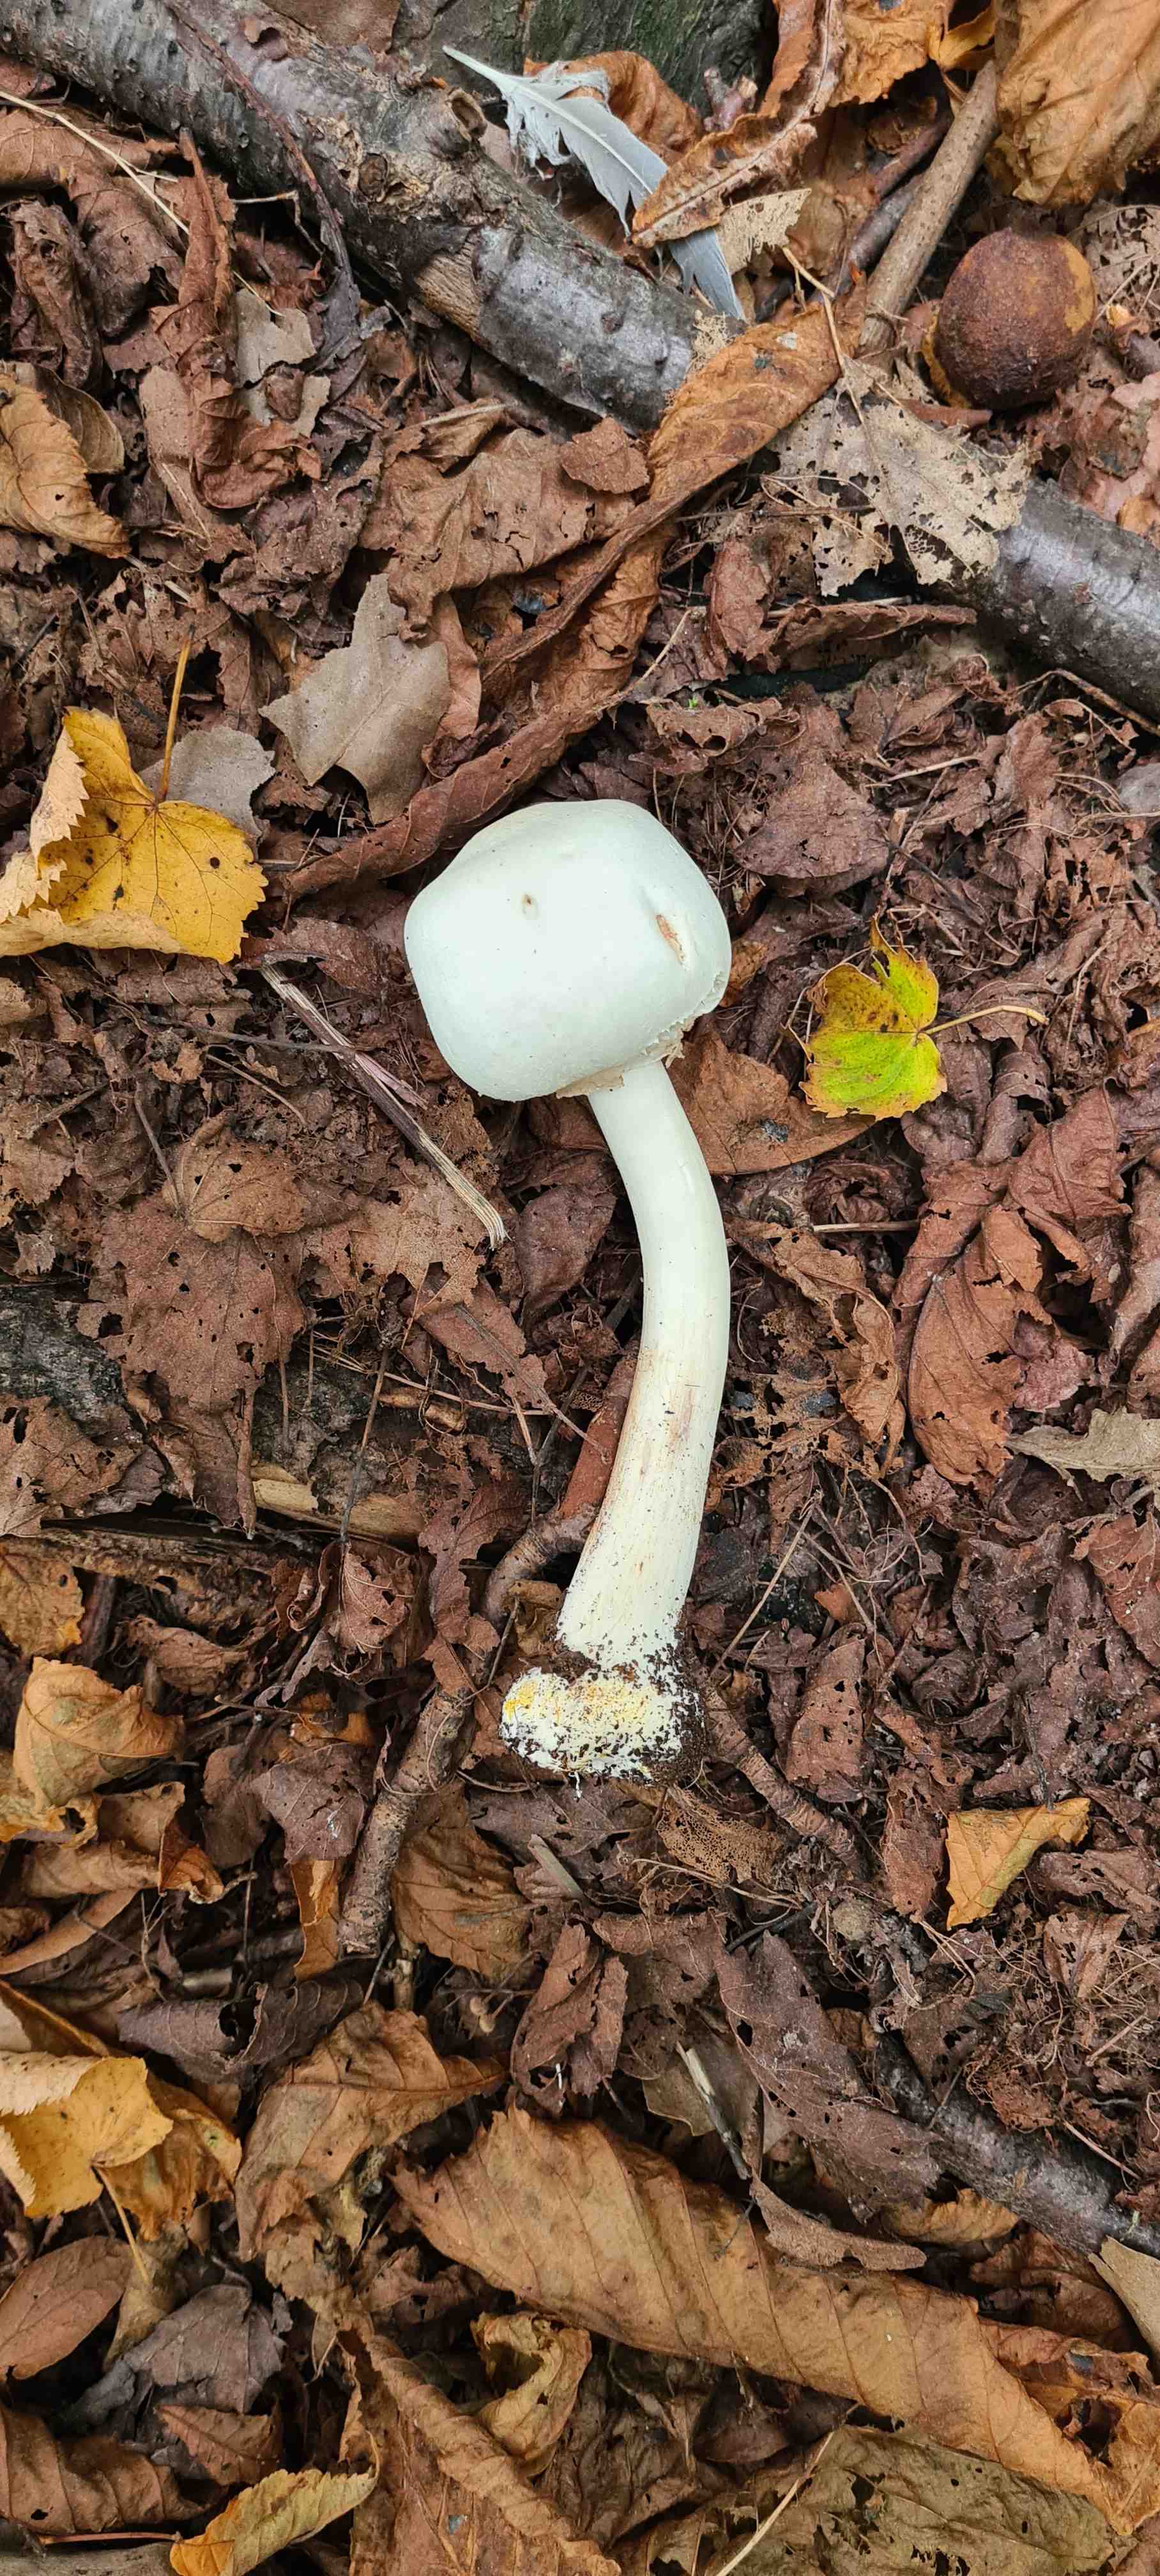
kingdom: Fungi
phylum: Basidiomycota
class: Agaricomycetes
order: Agaricales
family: Agaricaceae
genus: Agaricus
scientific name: Agaricus
